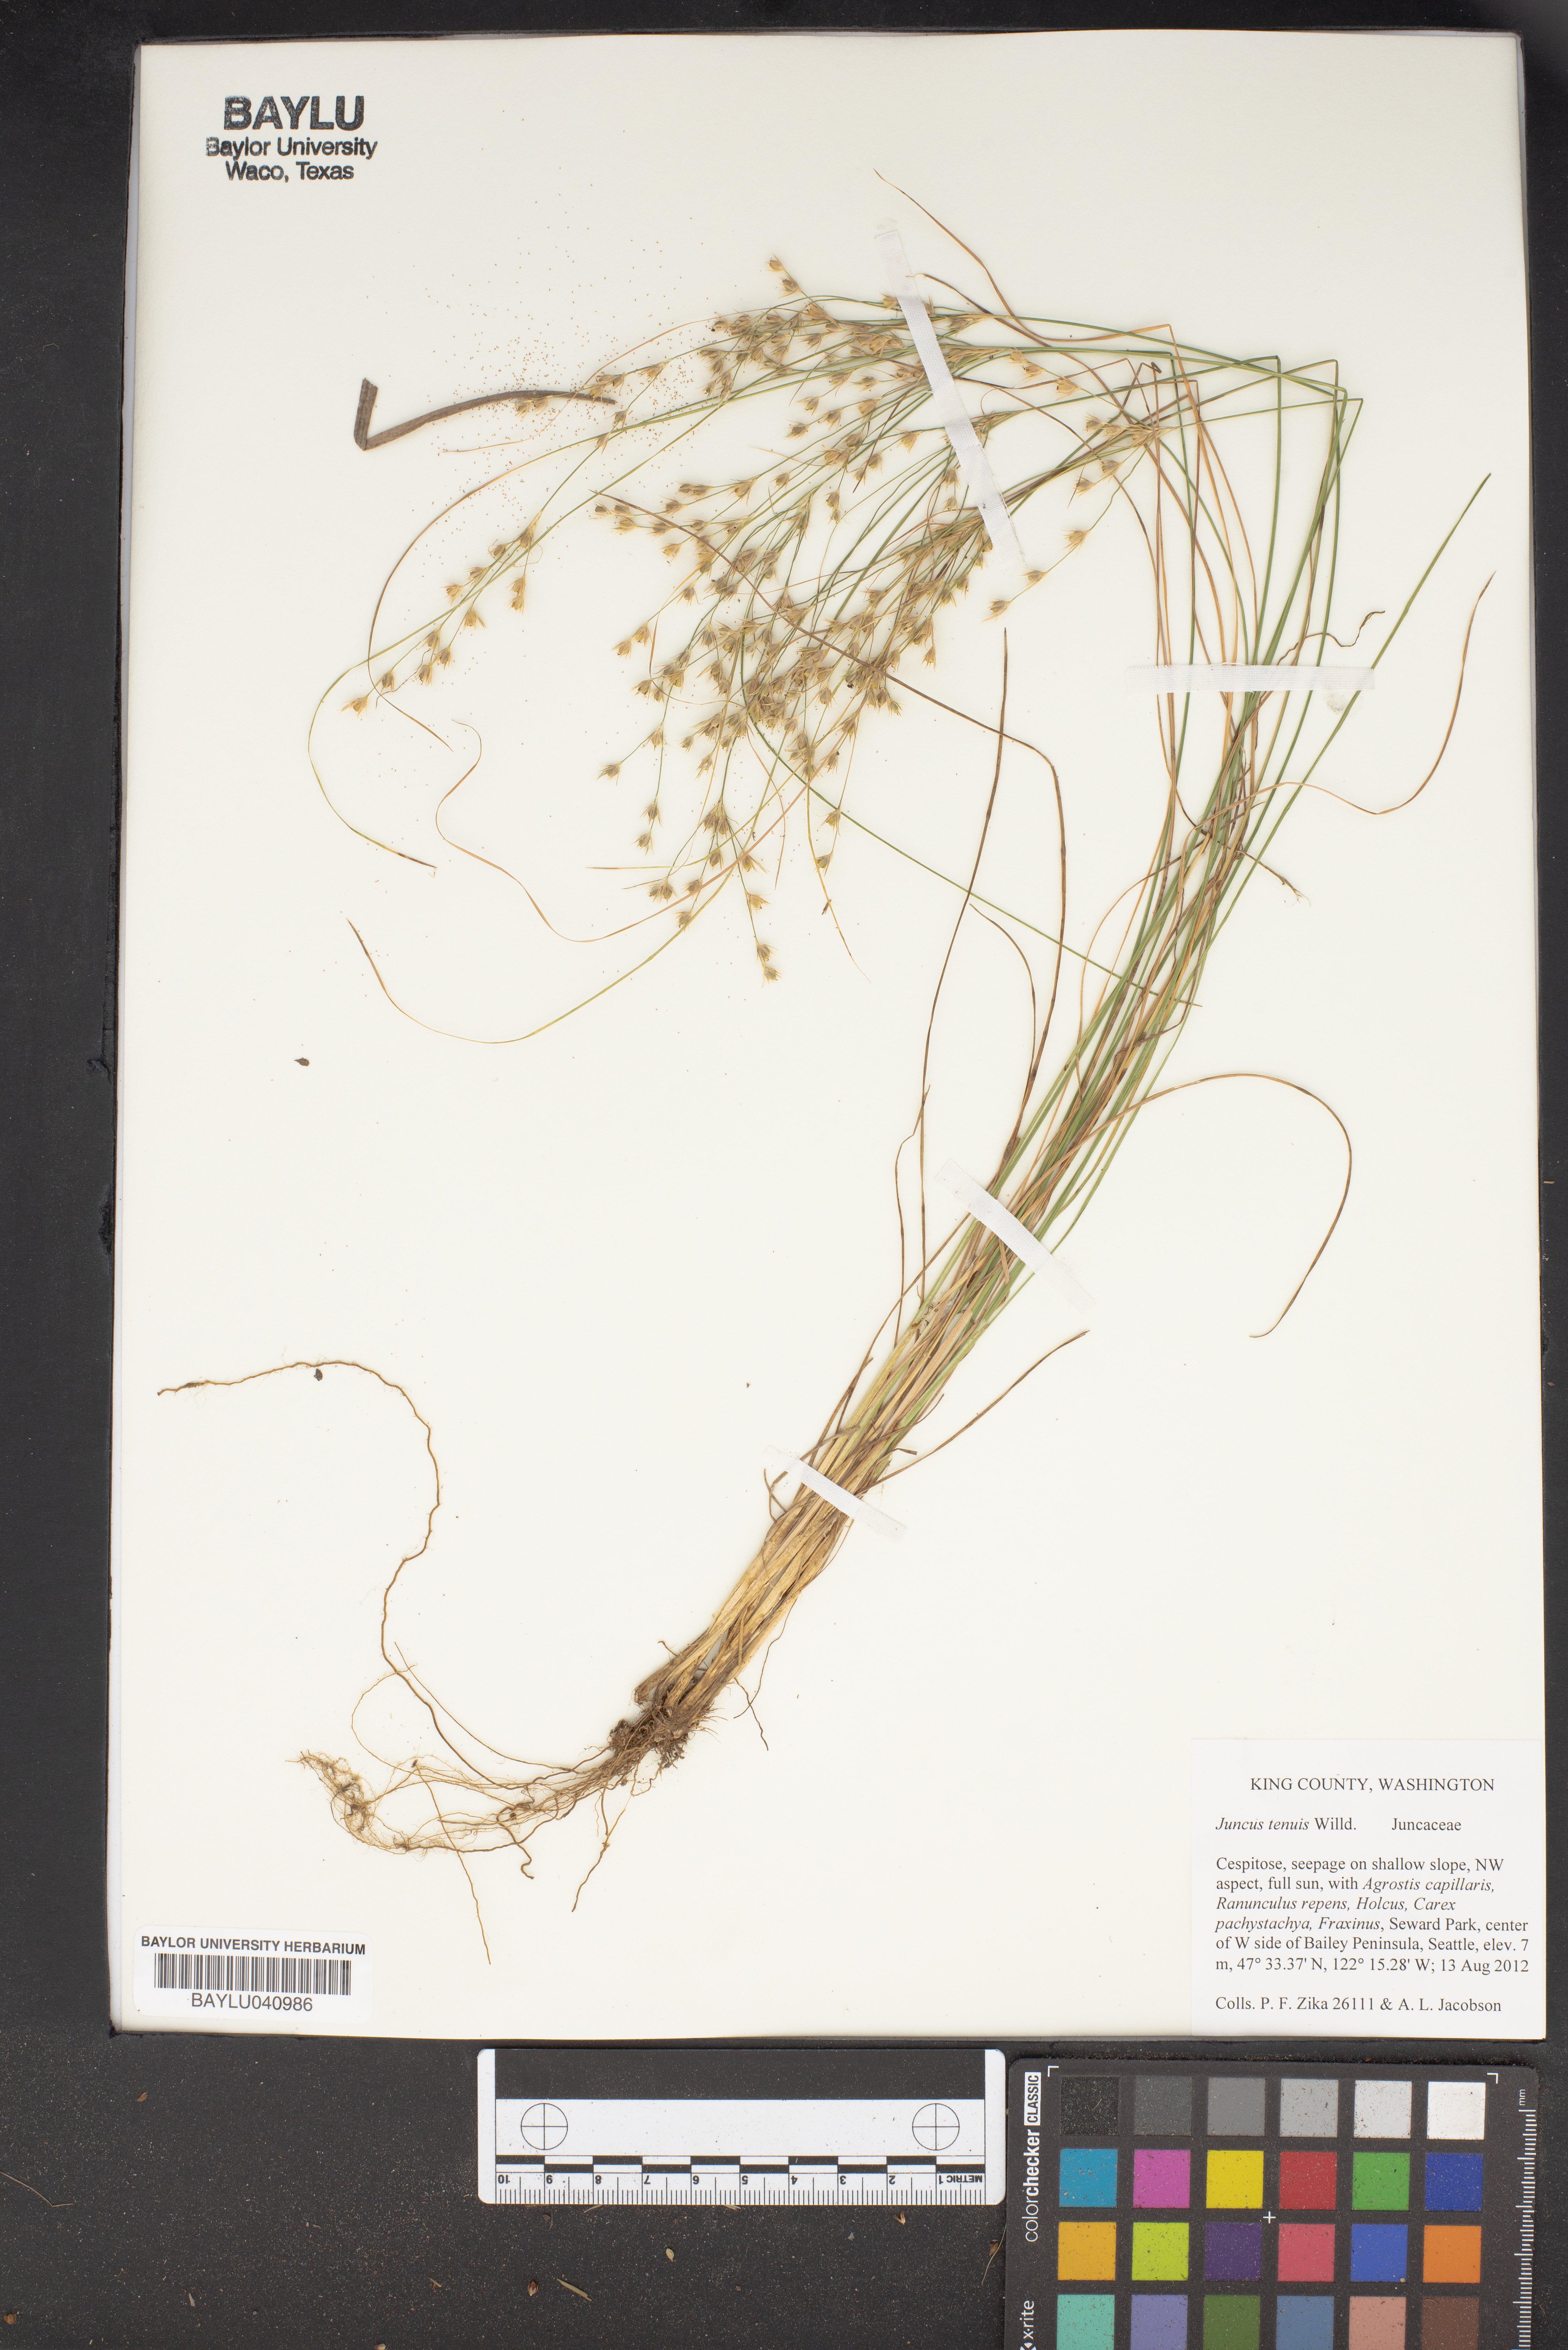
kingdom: Plantae
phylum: Tracheophyta
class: Liliopsida
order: Poales
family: Juncaceae
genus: Juncus
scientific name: Juncus tenuis
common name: Slender rush
